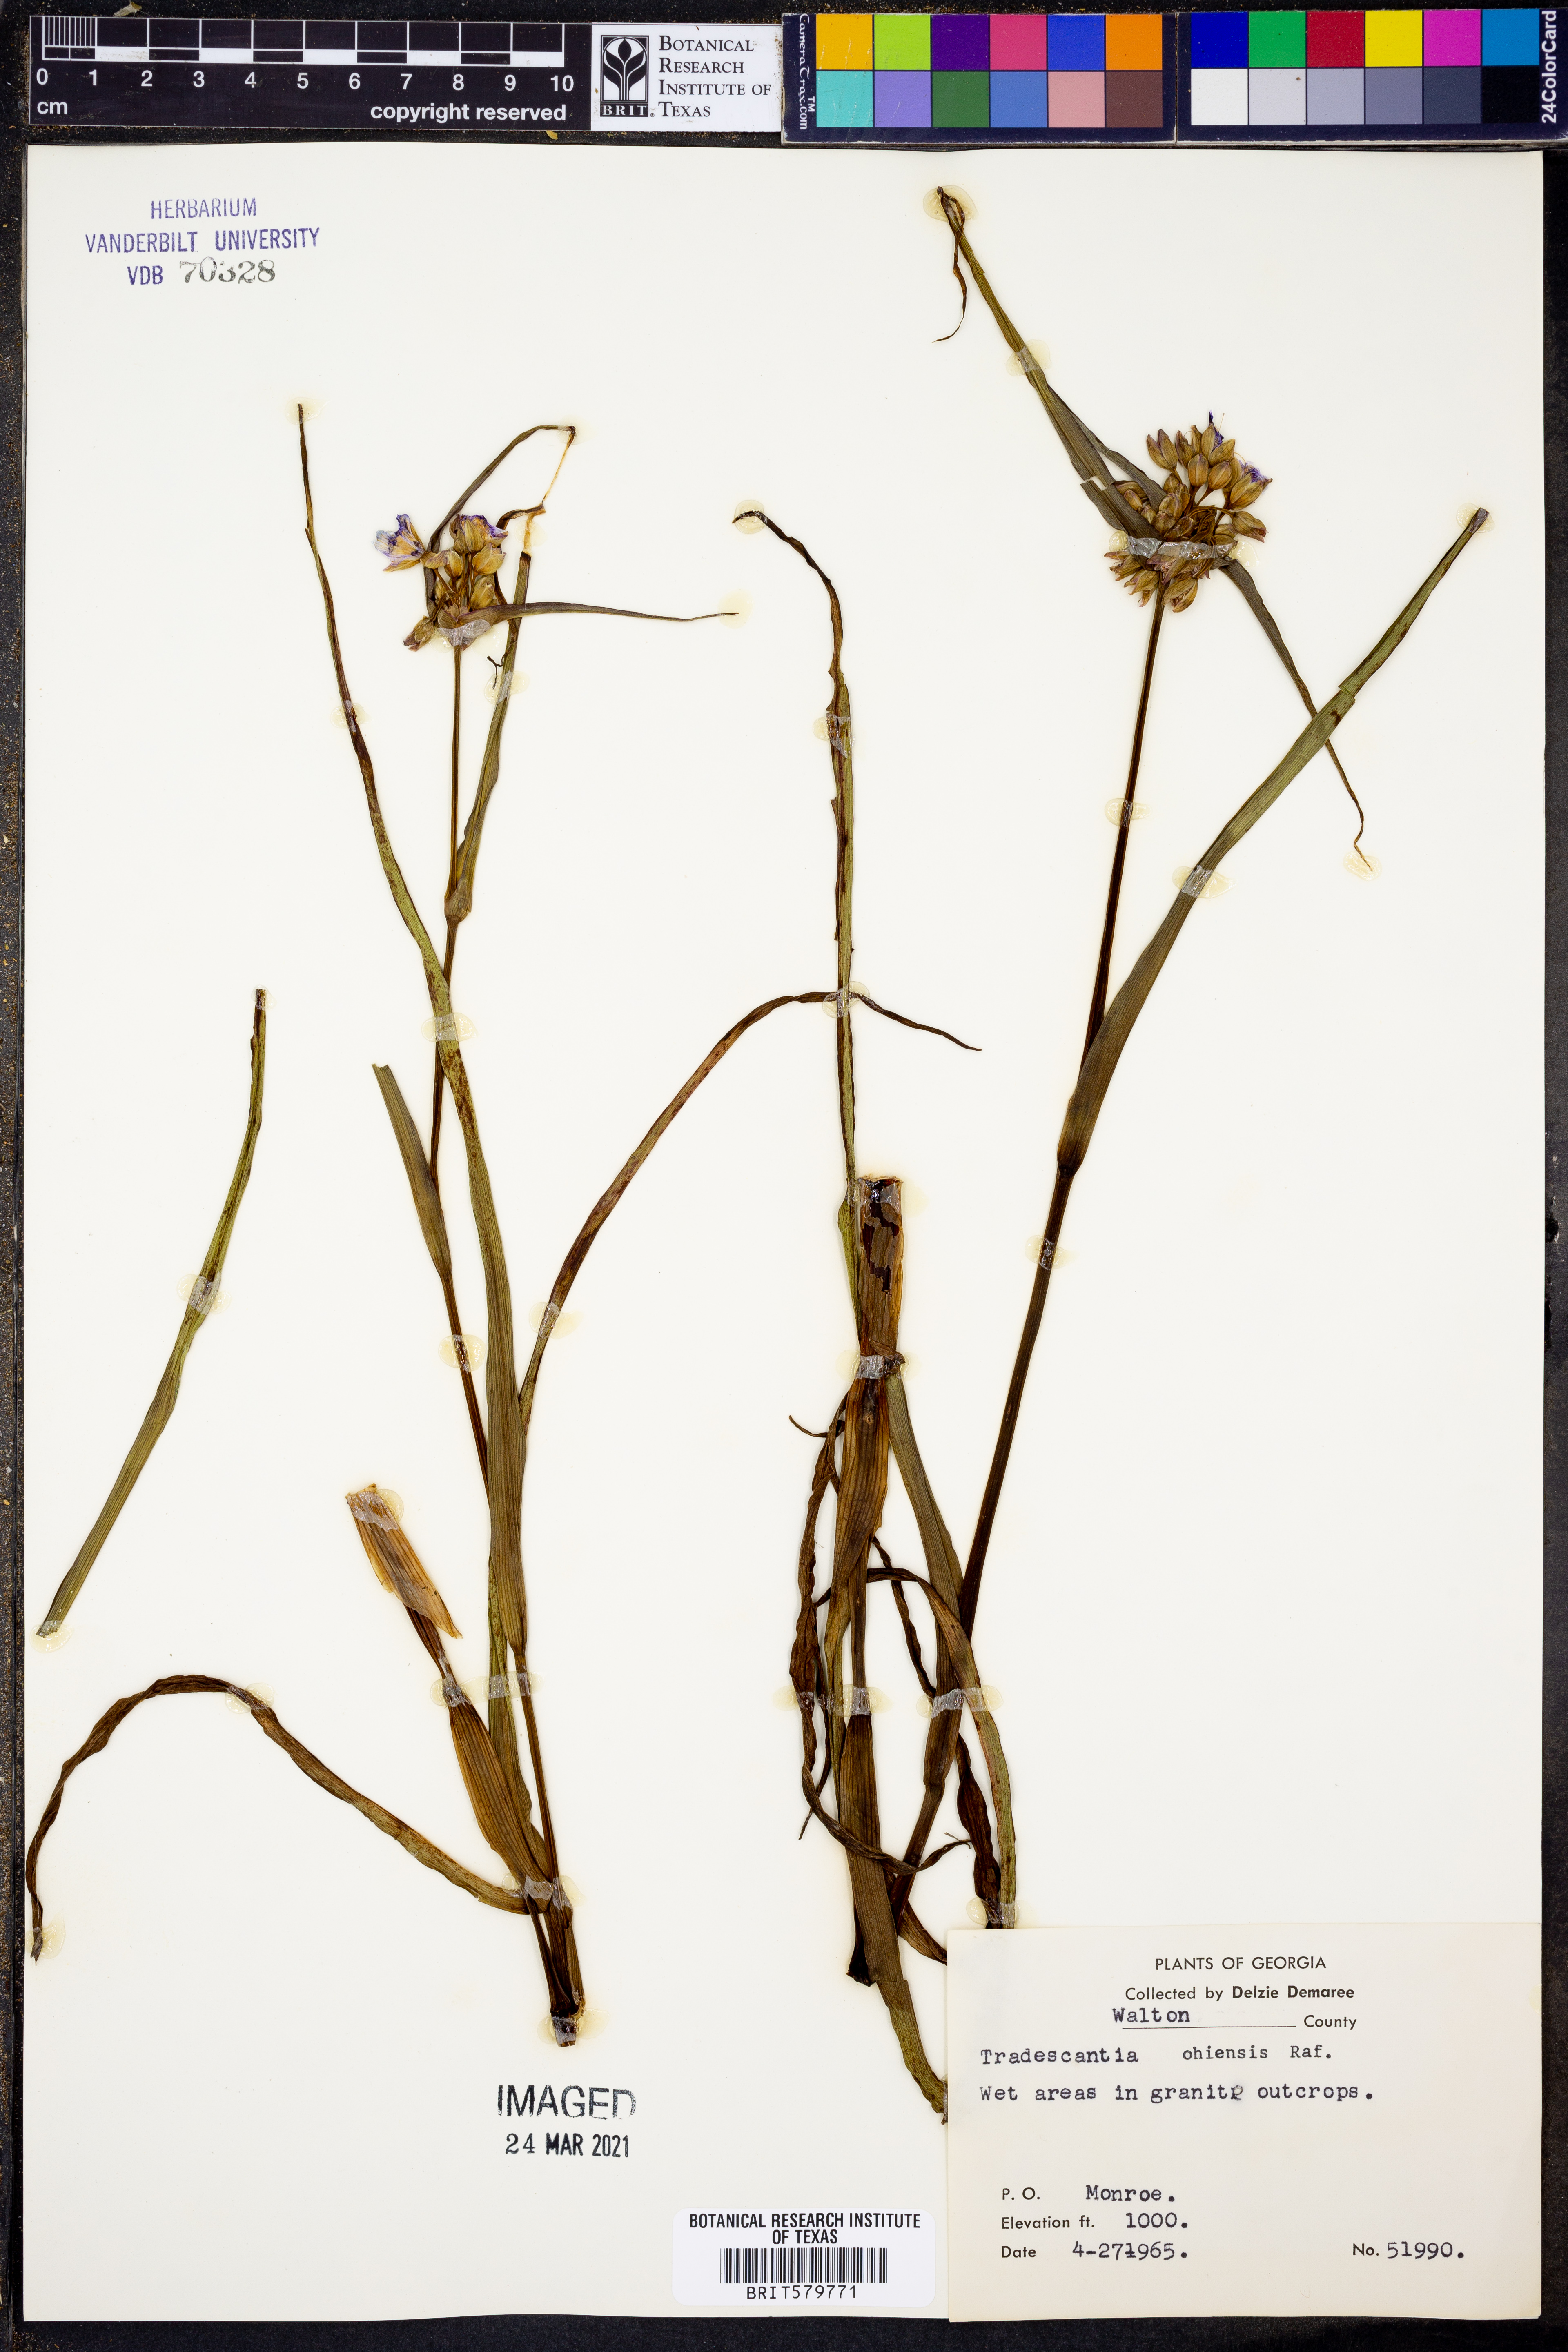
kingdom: Plantae
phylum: Tracheophyta
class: Liliopsida
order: Commelinales
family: Commelinaceae
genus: Tradescantia
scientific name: Tradescantia ohiensis
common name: Ohio spiderwort
